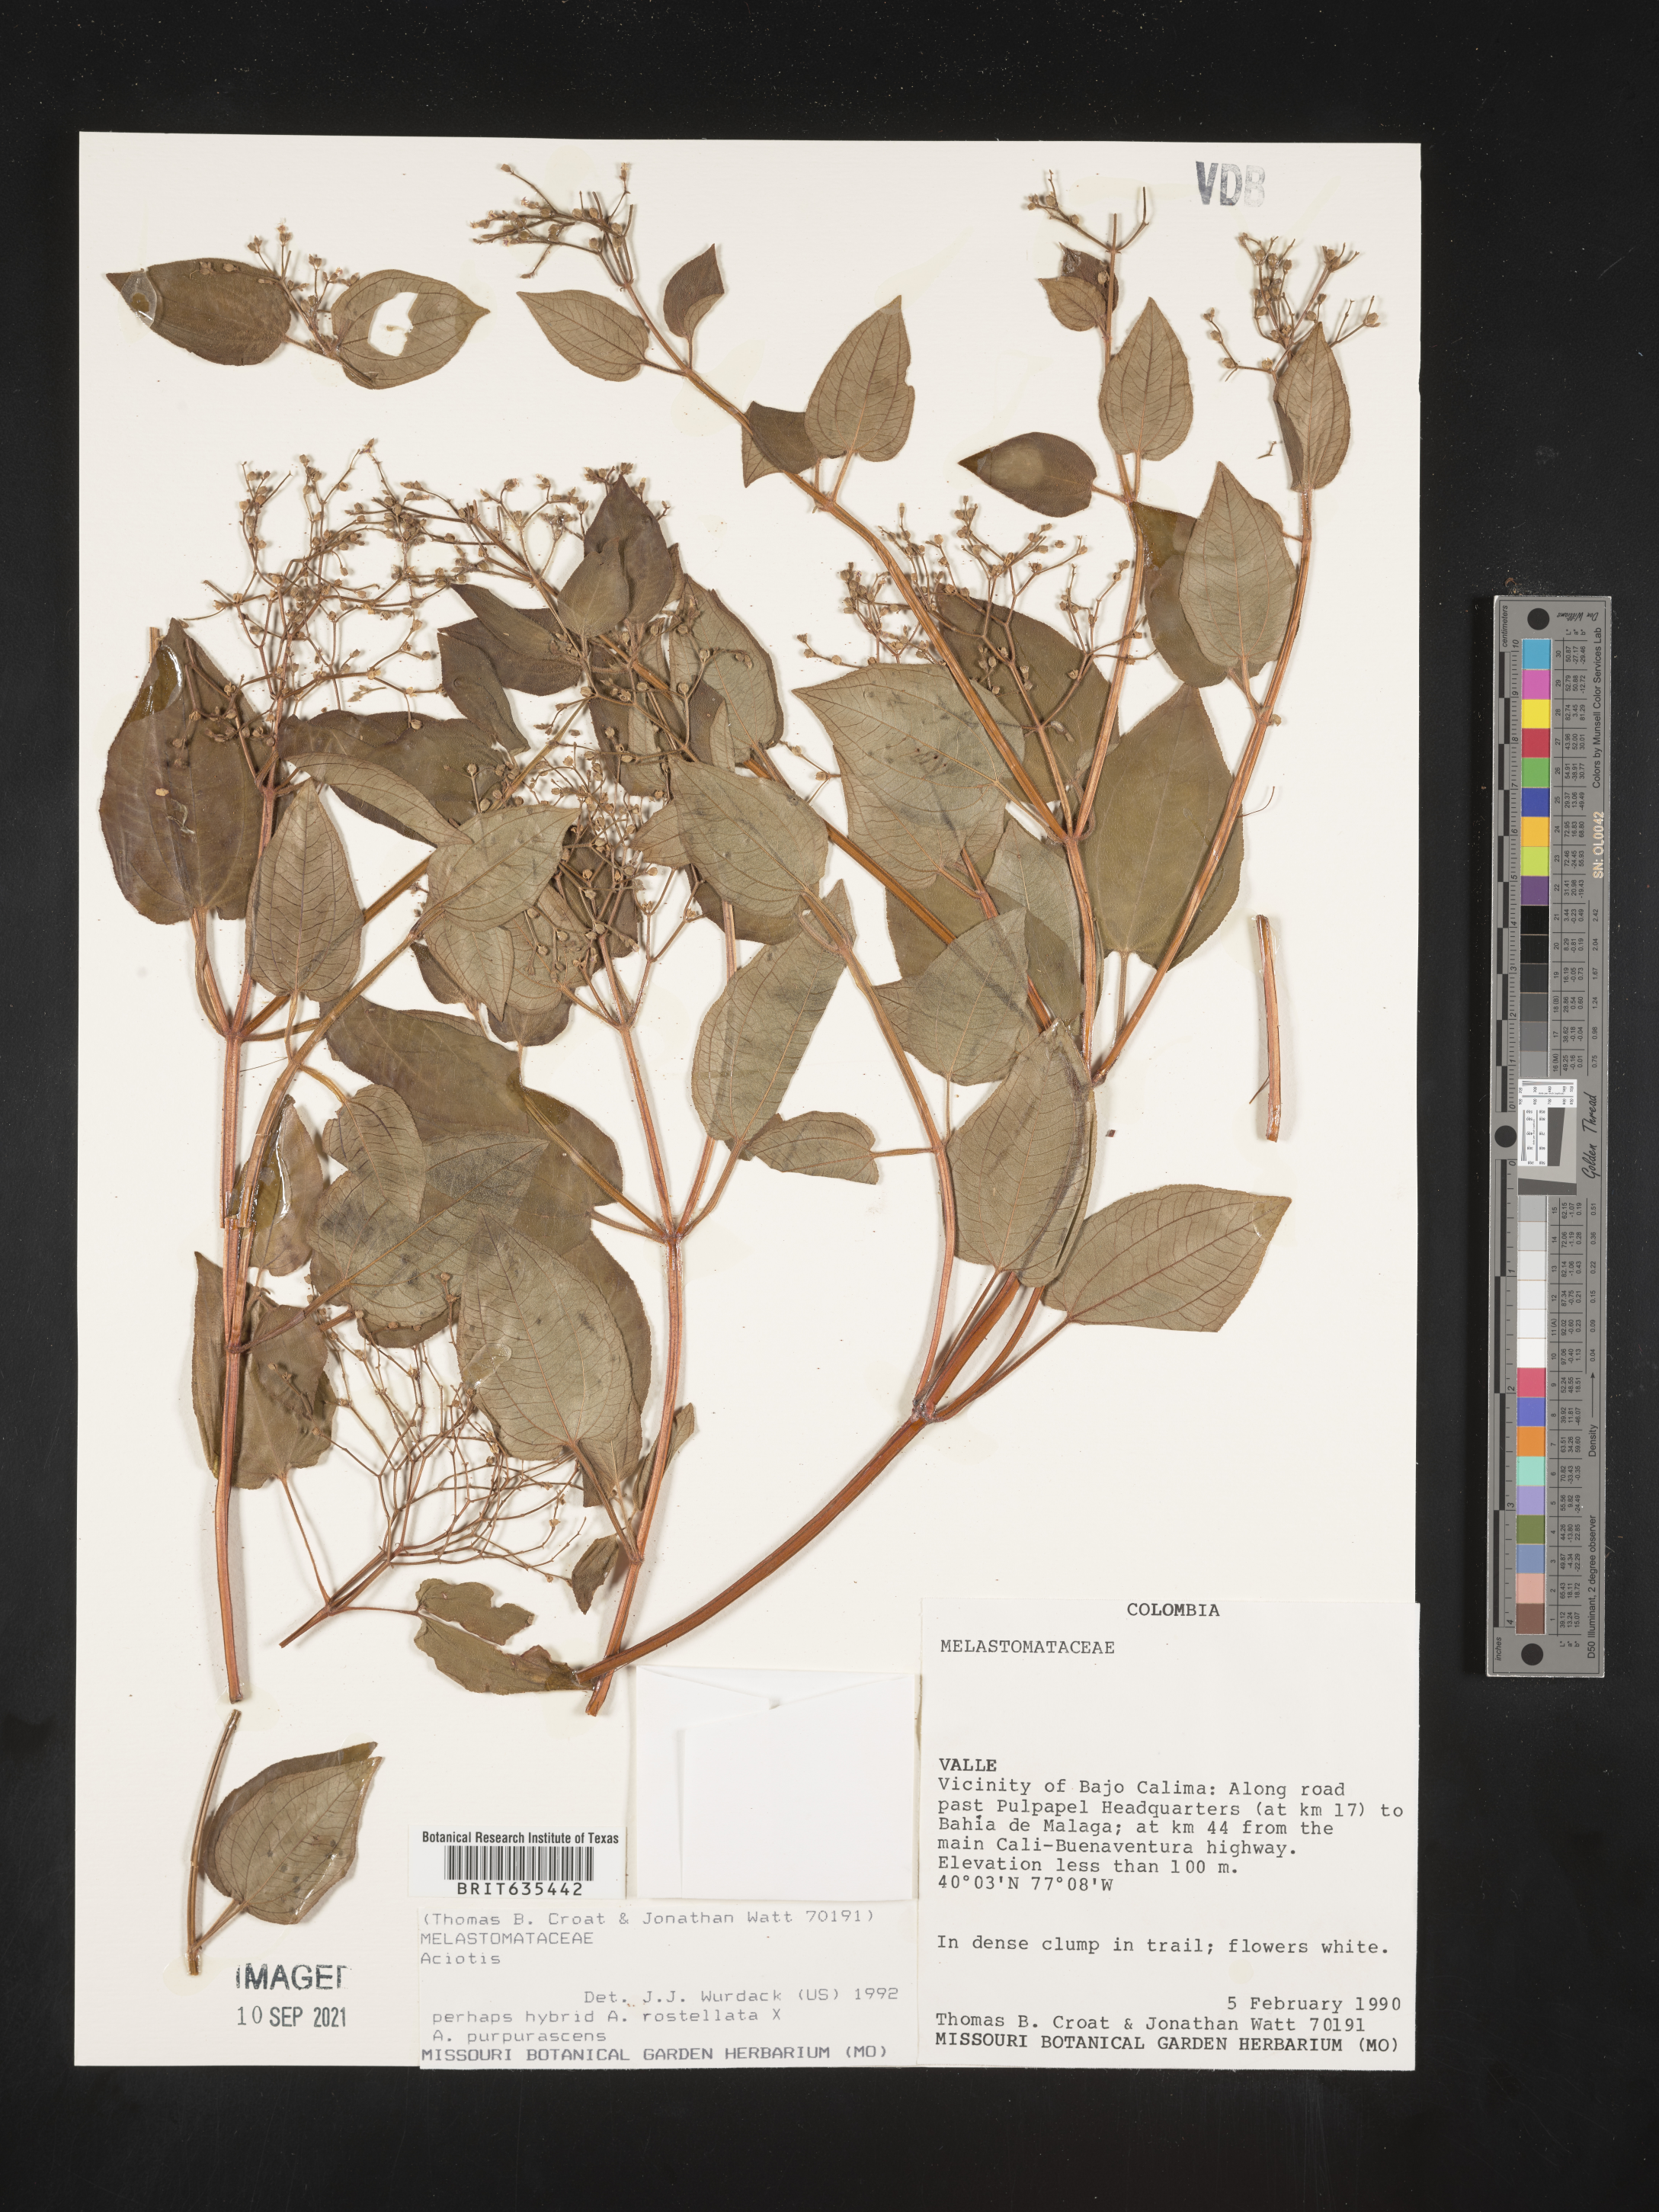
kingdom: Plantae
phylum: Tracheophyta
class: Magnoliopsida
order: Myrtales
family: Melastomataceae
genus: Aciotis
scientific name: Aciotis
